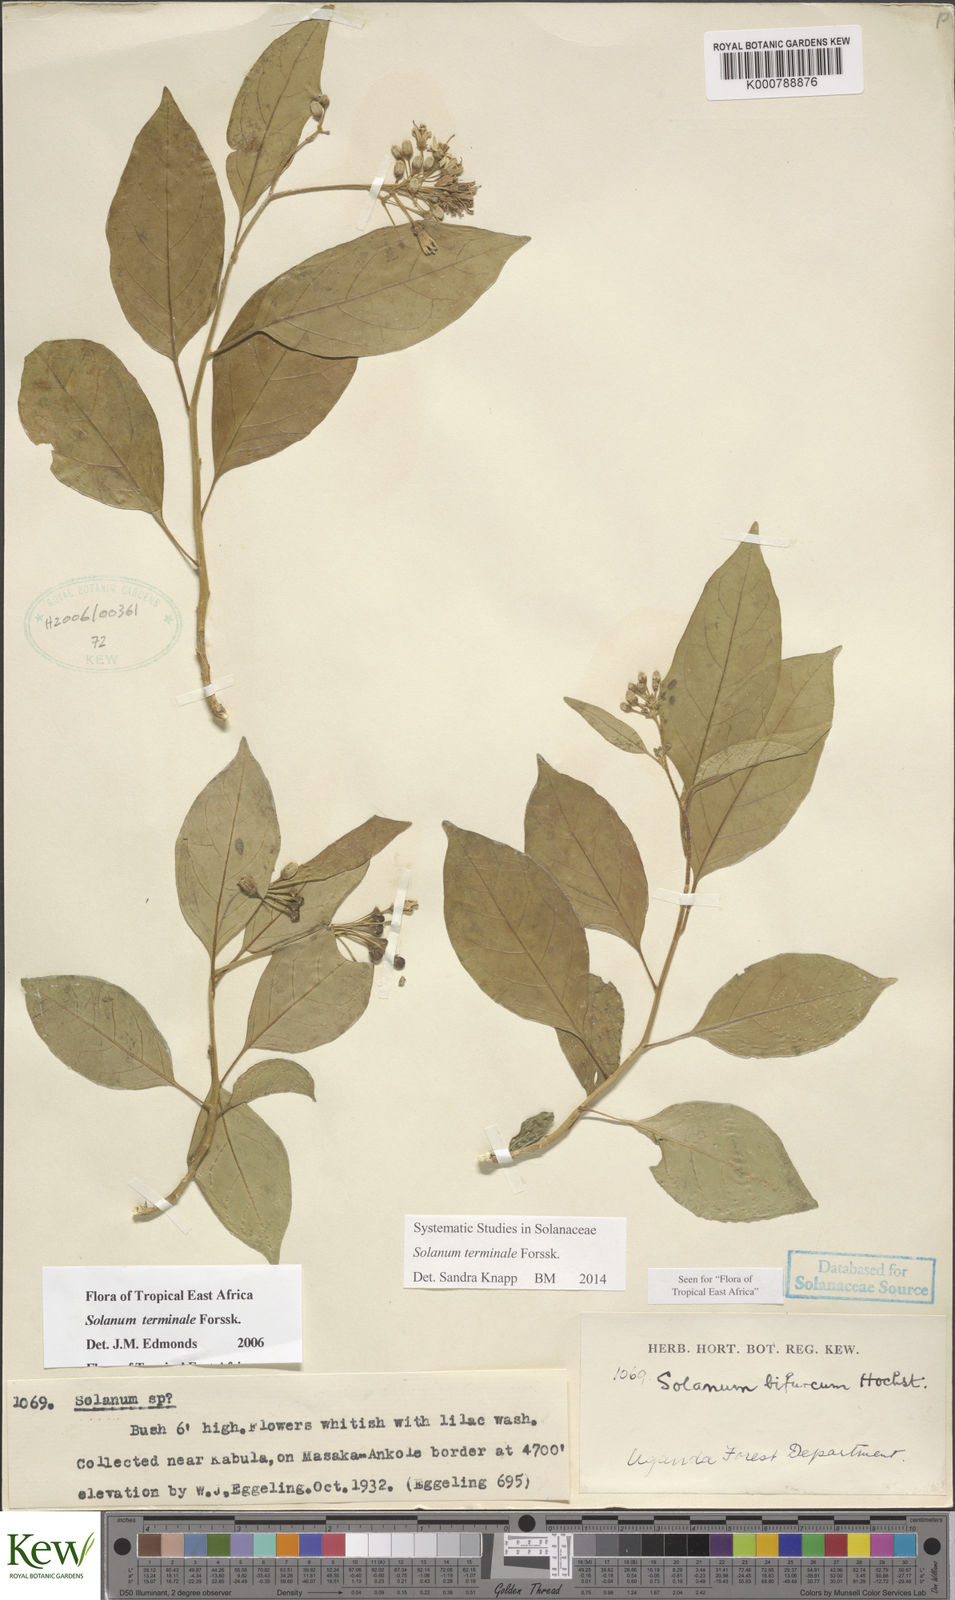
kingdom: Plantae
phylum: Tracheophyta
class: Magnoliopsida
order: Solanales
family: Solanaceae
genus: Solanum
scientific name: Solanum terminale
